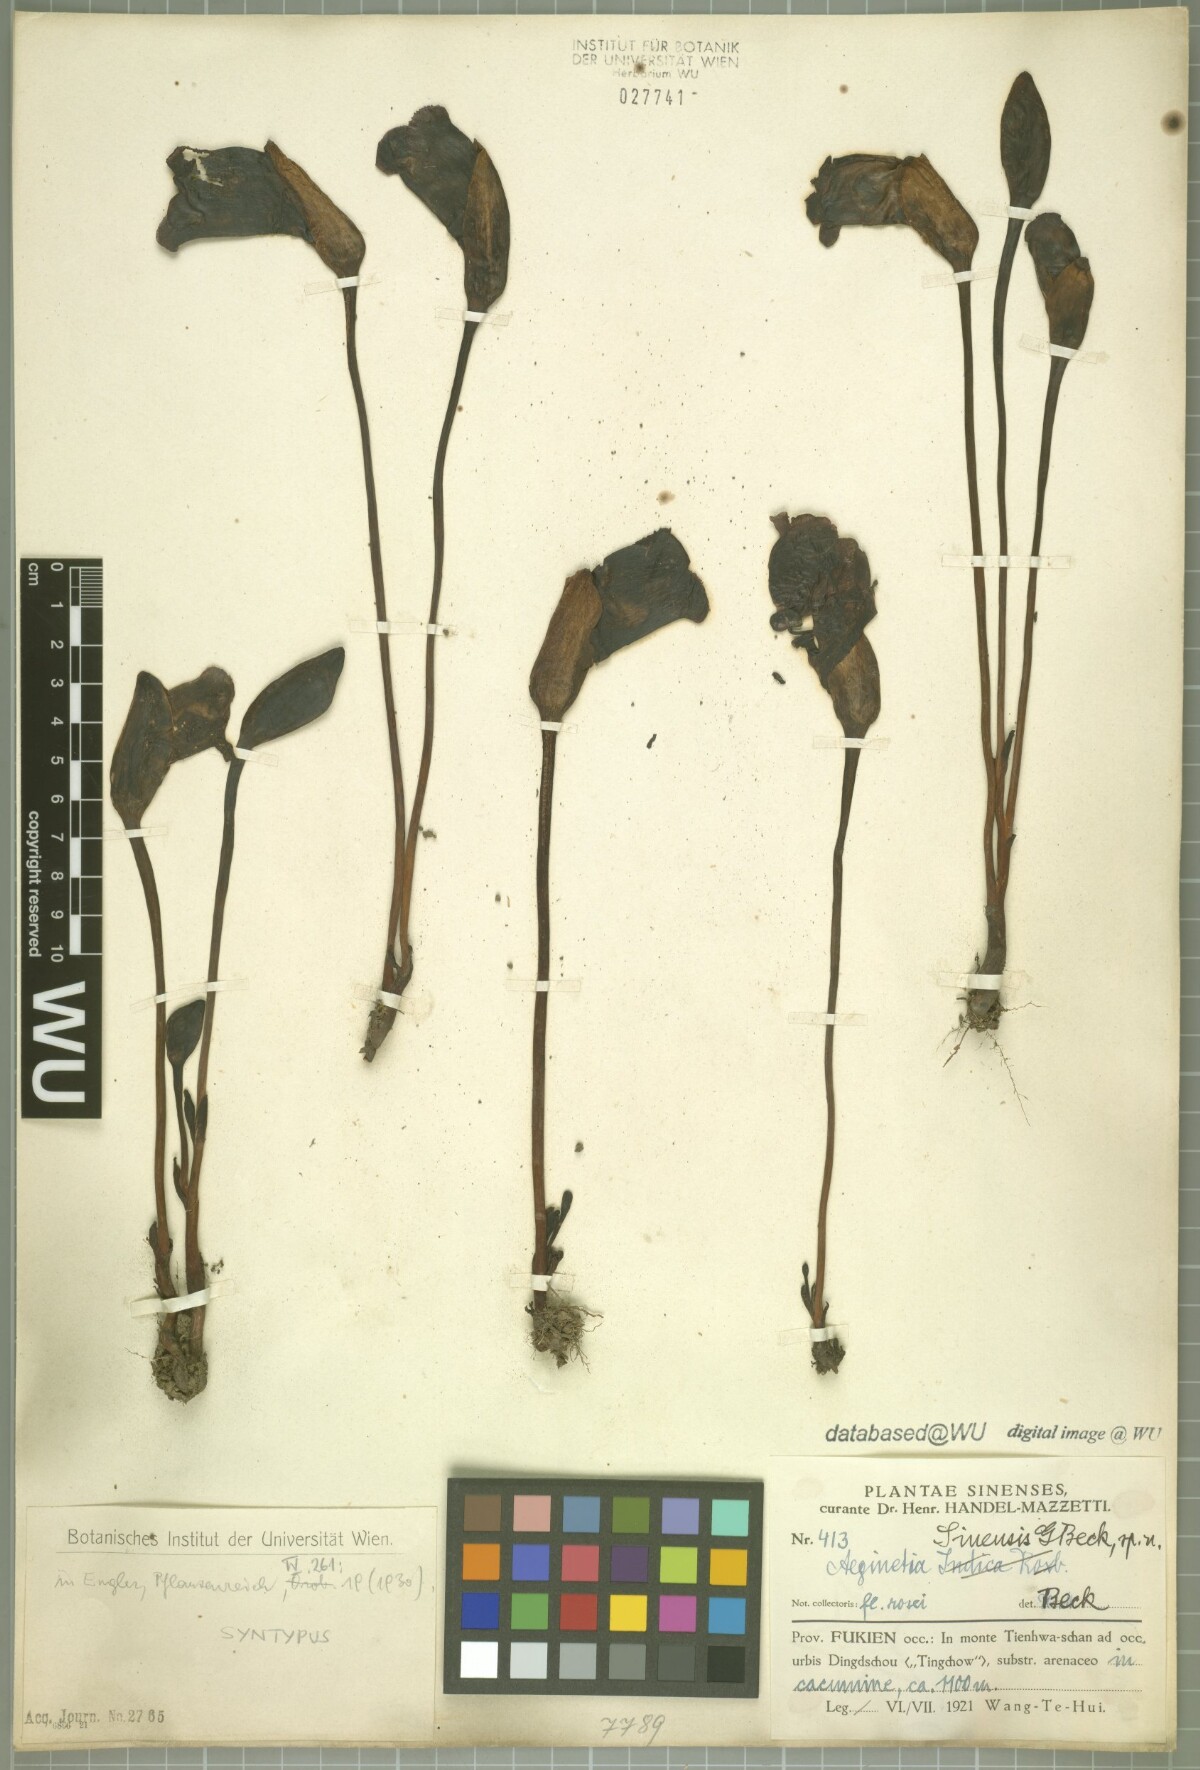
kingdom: Plantae
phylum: Tracheophyta
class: Magnoliopsida
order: Lamiales
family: Orobanchaceae
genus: Aeginetia
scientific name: Aeginetia sinensis
